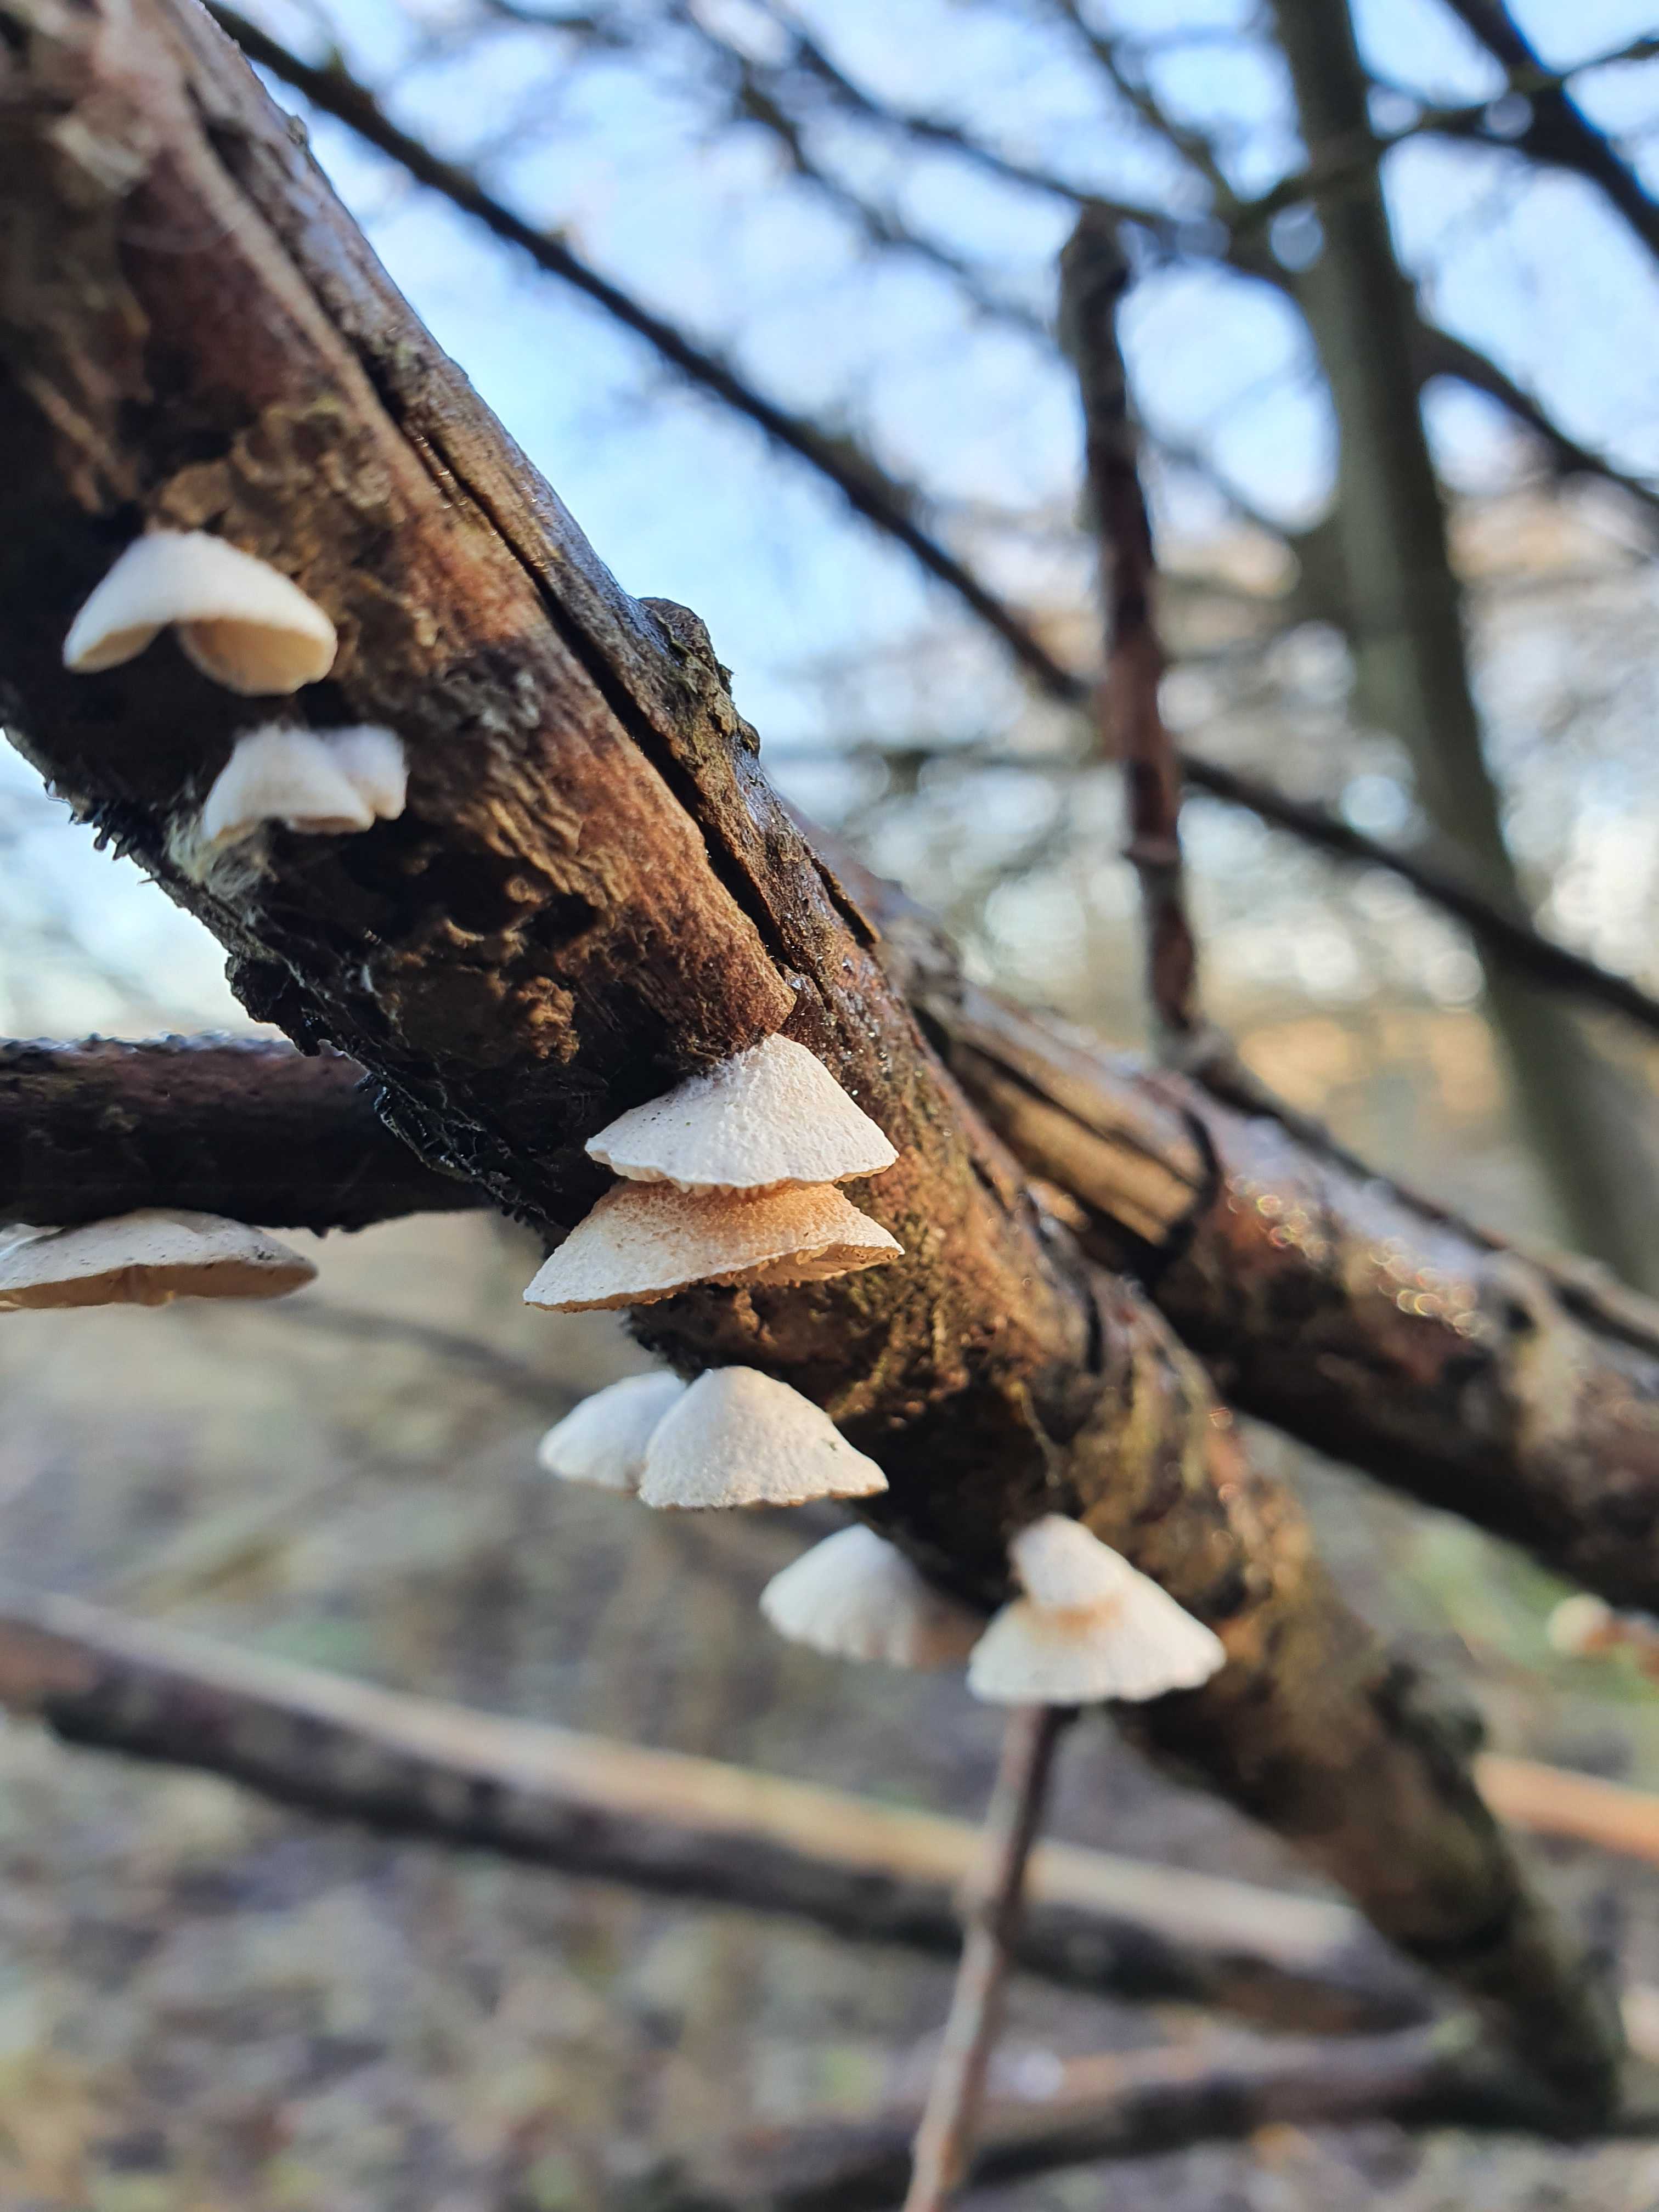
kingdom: Fungi
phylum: Basidiomycota
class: Agaricomycetes
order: Agaricales
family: Crepidotaceae
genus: Crepidotus
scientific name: Crepidotus
